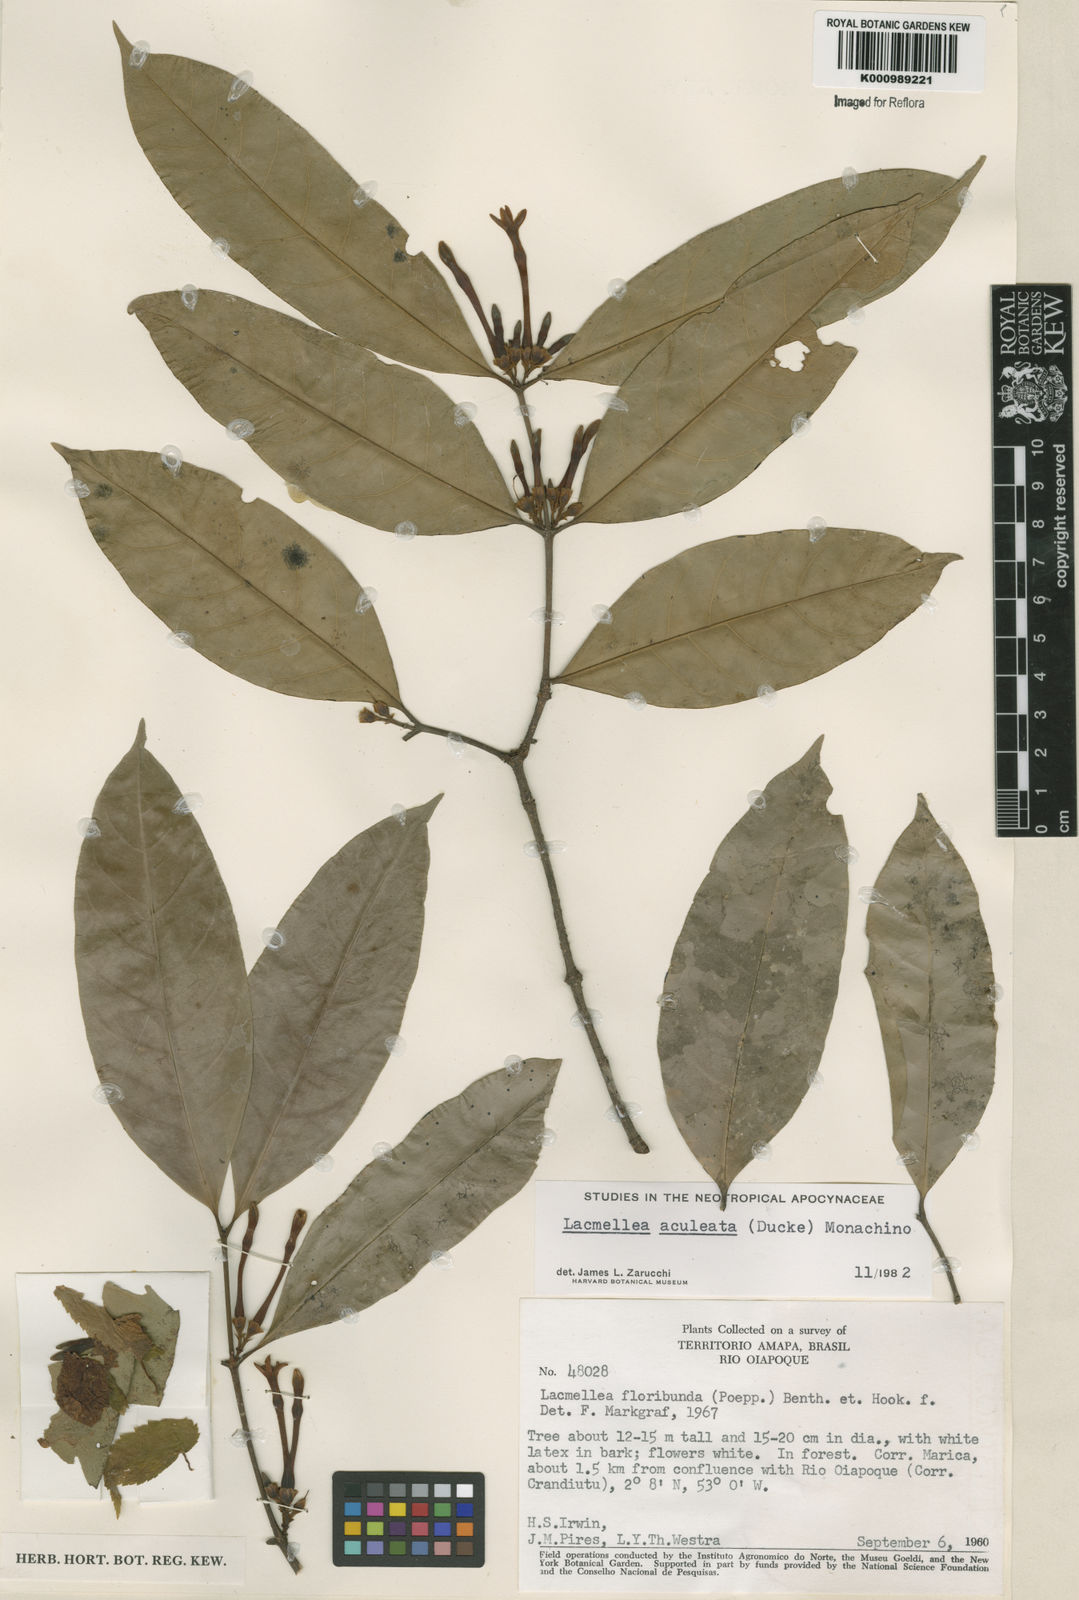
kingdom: Plantae
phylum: Tracheophyta
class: Magnoliopsida
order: Gentianales
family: Apocynaceae
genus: Lacmellea
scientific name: Lacmellea floribunda
